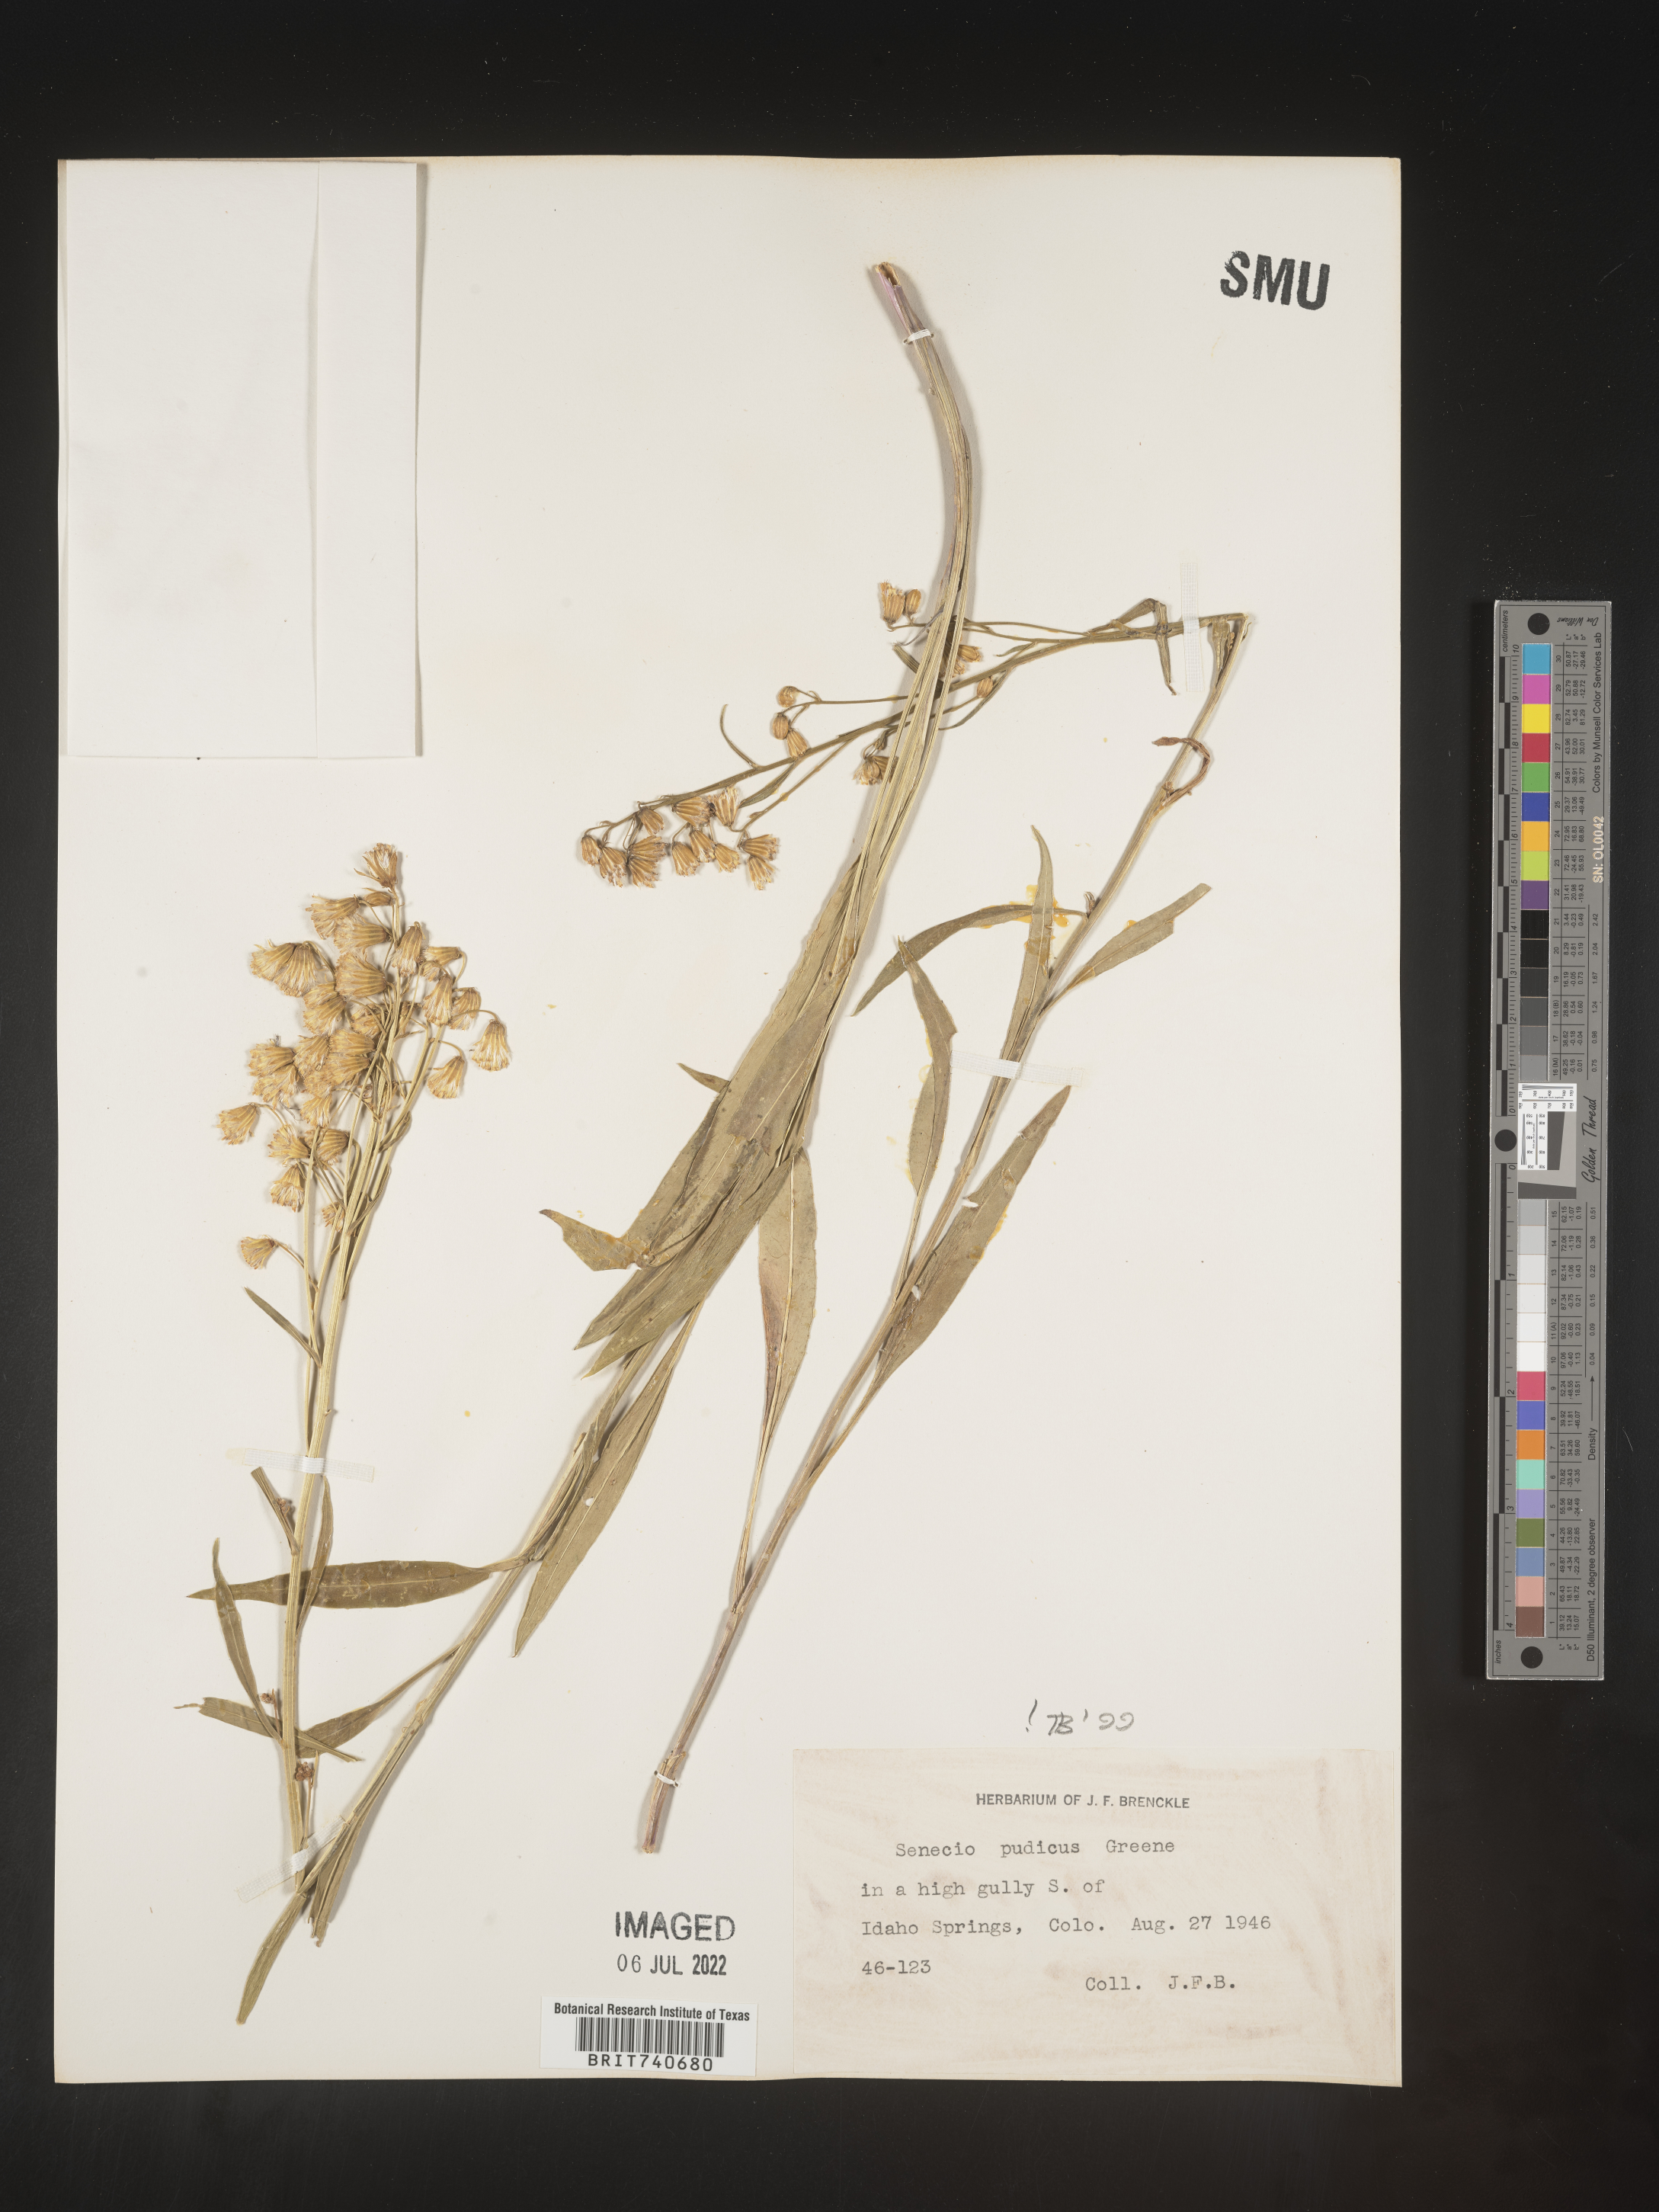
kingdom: Plantae
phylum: Tracheophyta
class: Magnoliopsida
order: Asterales
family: Asteraceae
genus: Senecio
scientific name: Senecio pudicus
